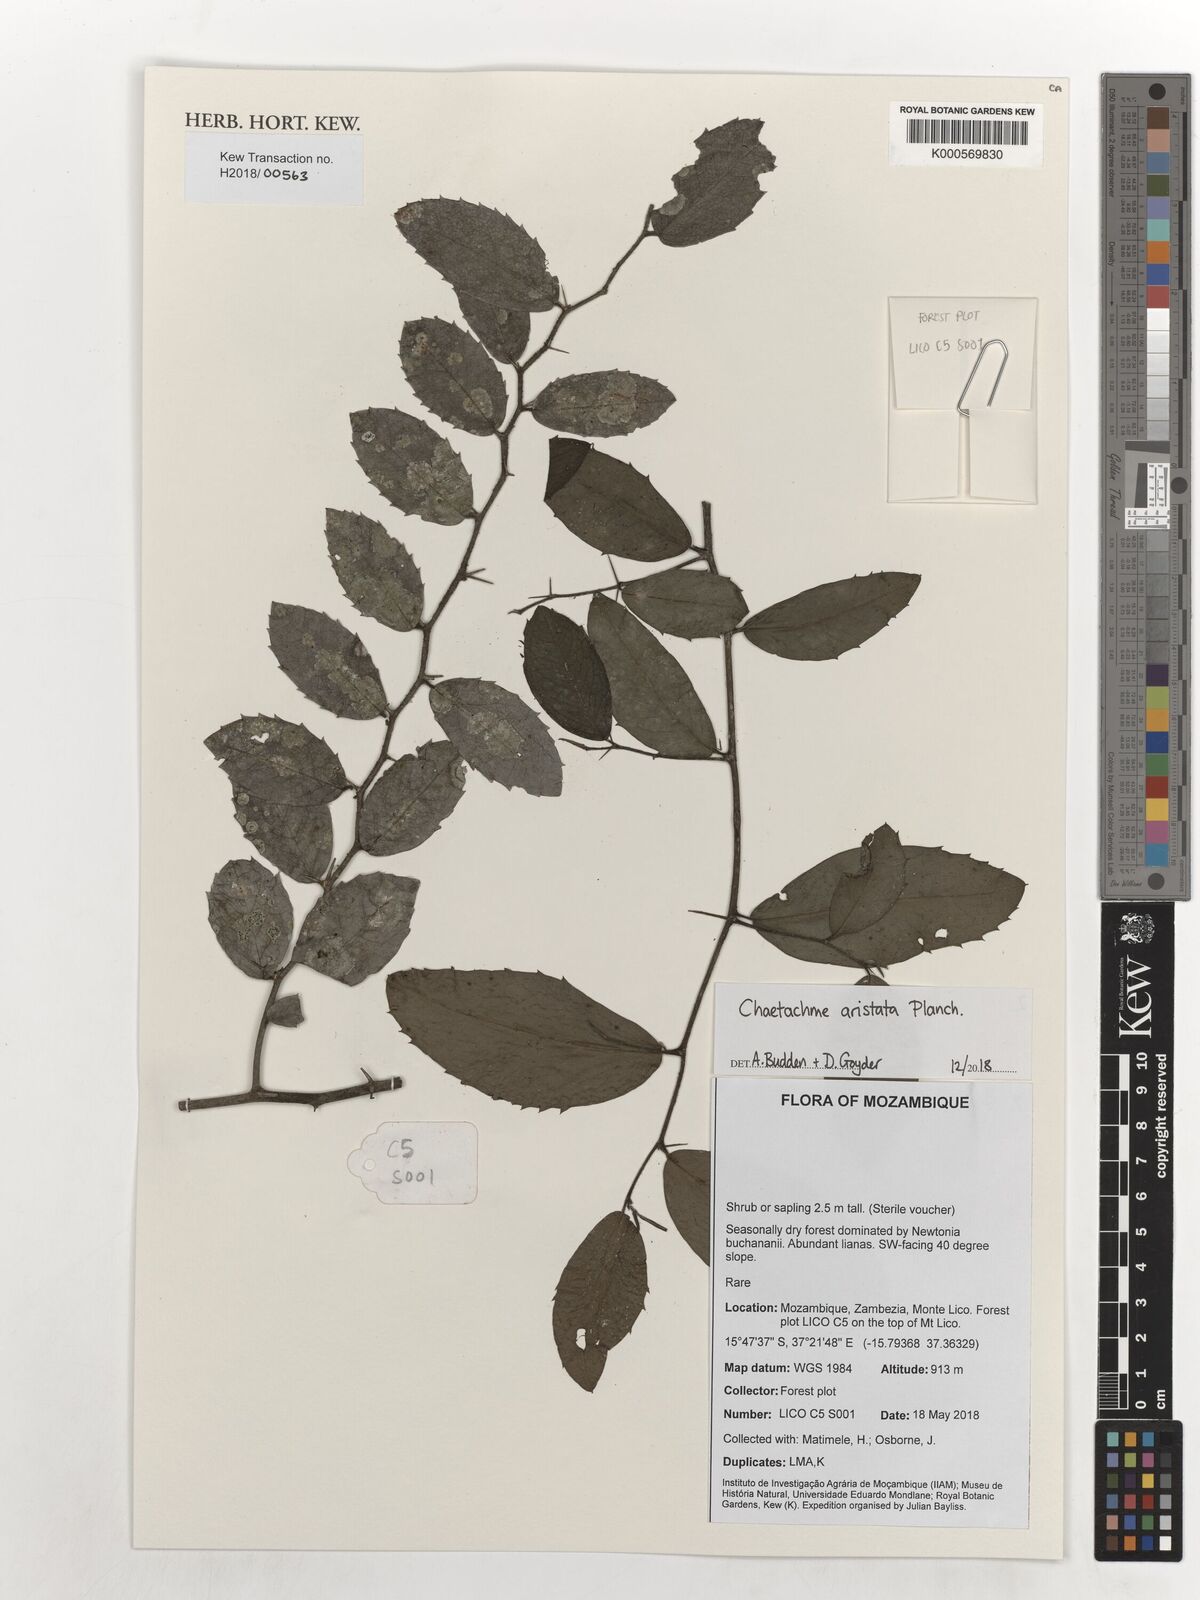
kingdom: Plantae
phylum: Tracheophyta
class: Magnoliopsida
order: Rosales
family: Cannabaceae
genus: Chaetachme
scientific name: Chaetachme aristata
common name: Thorny elm
